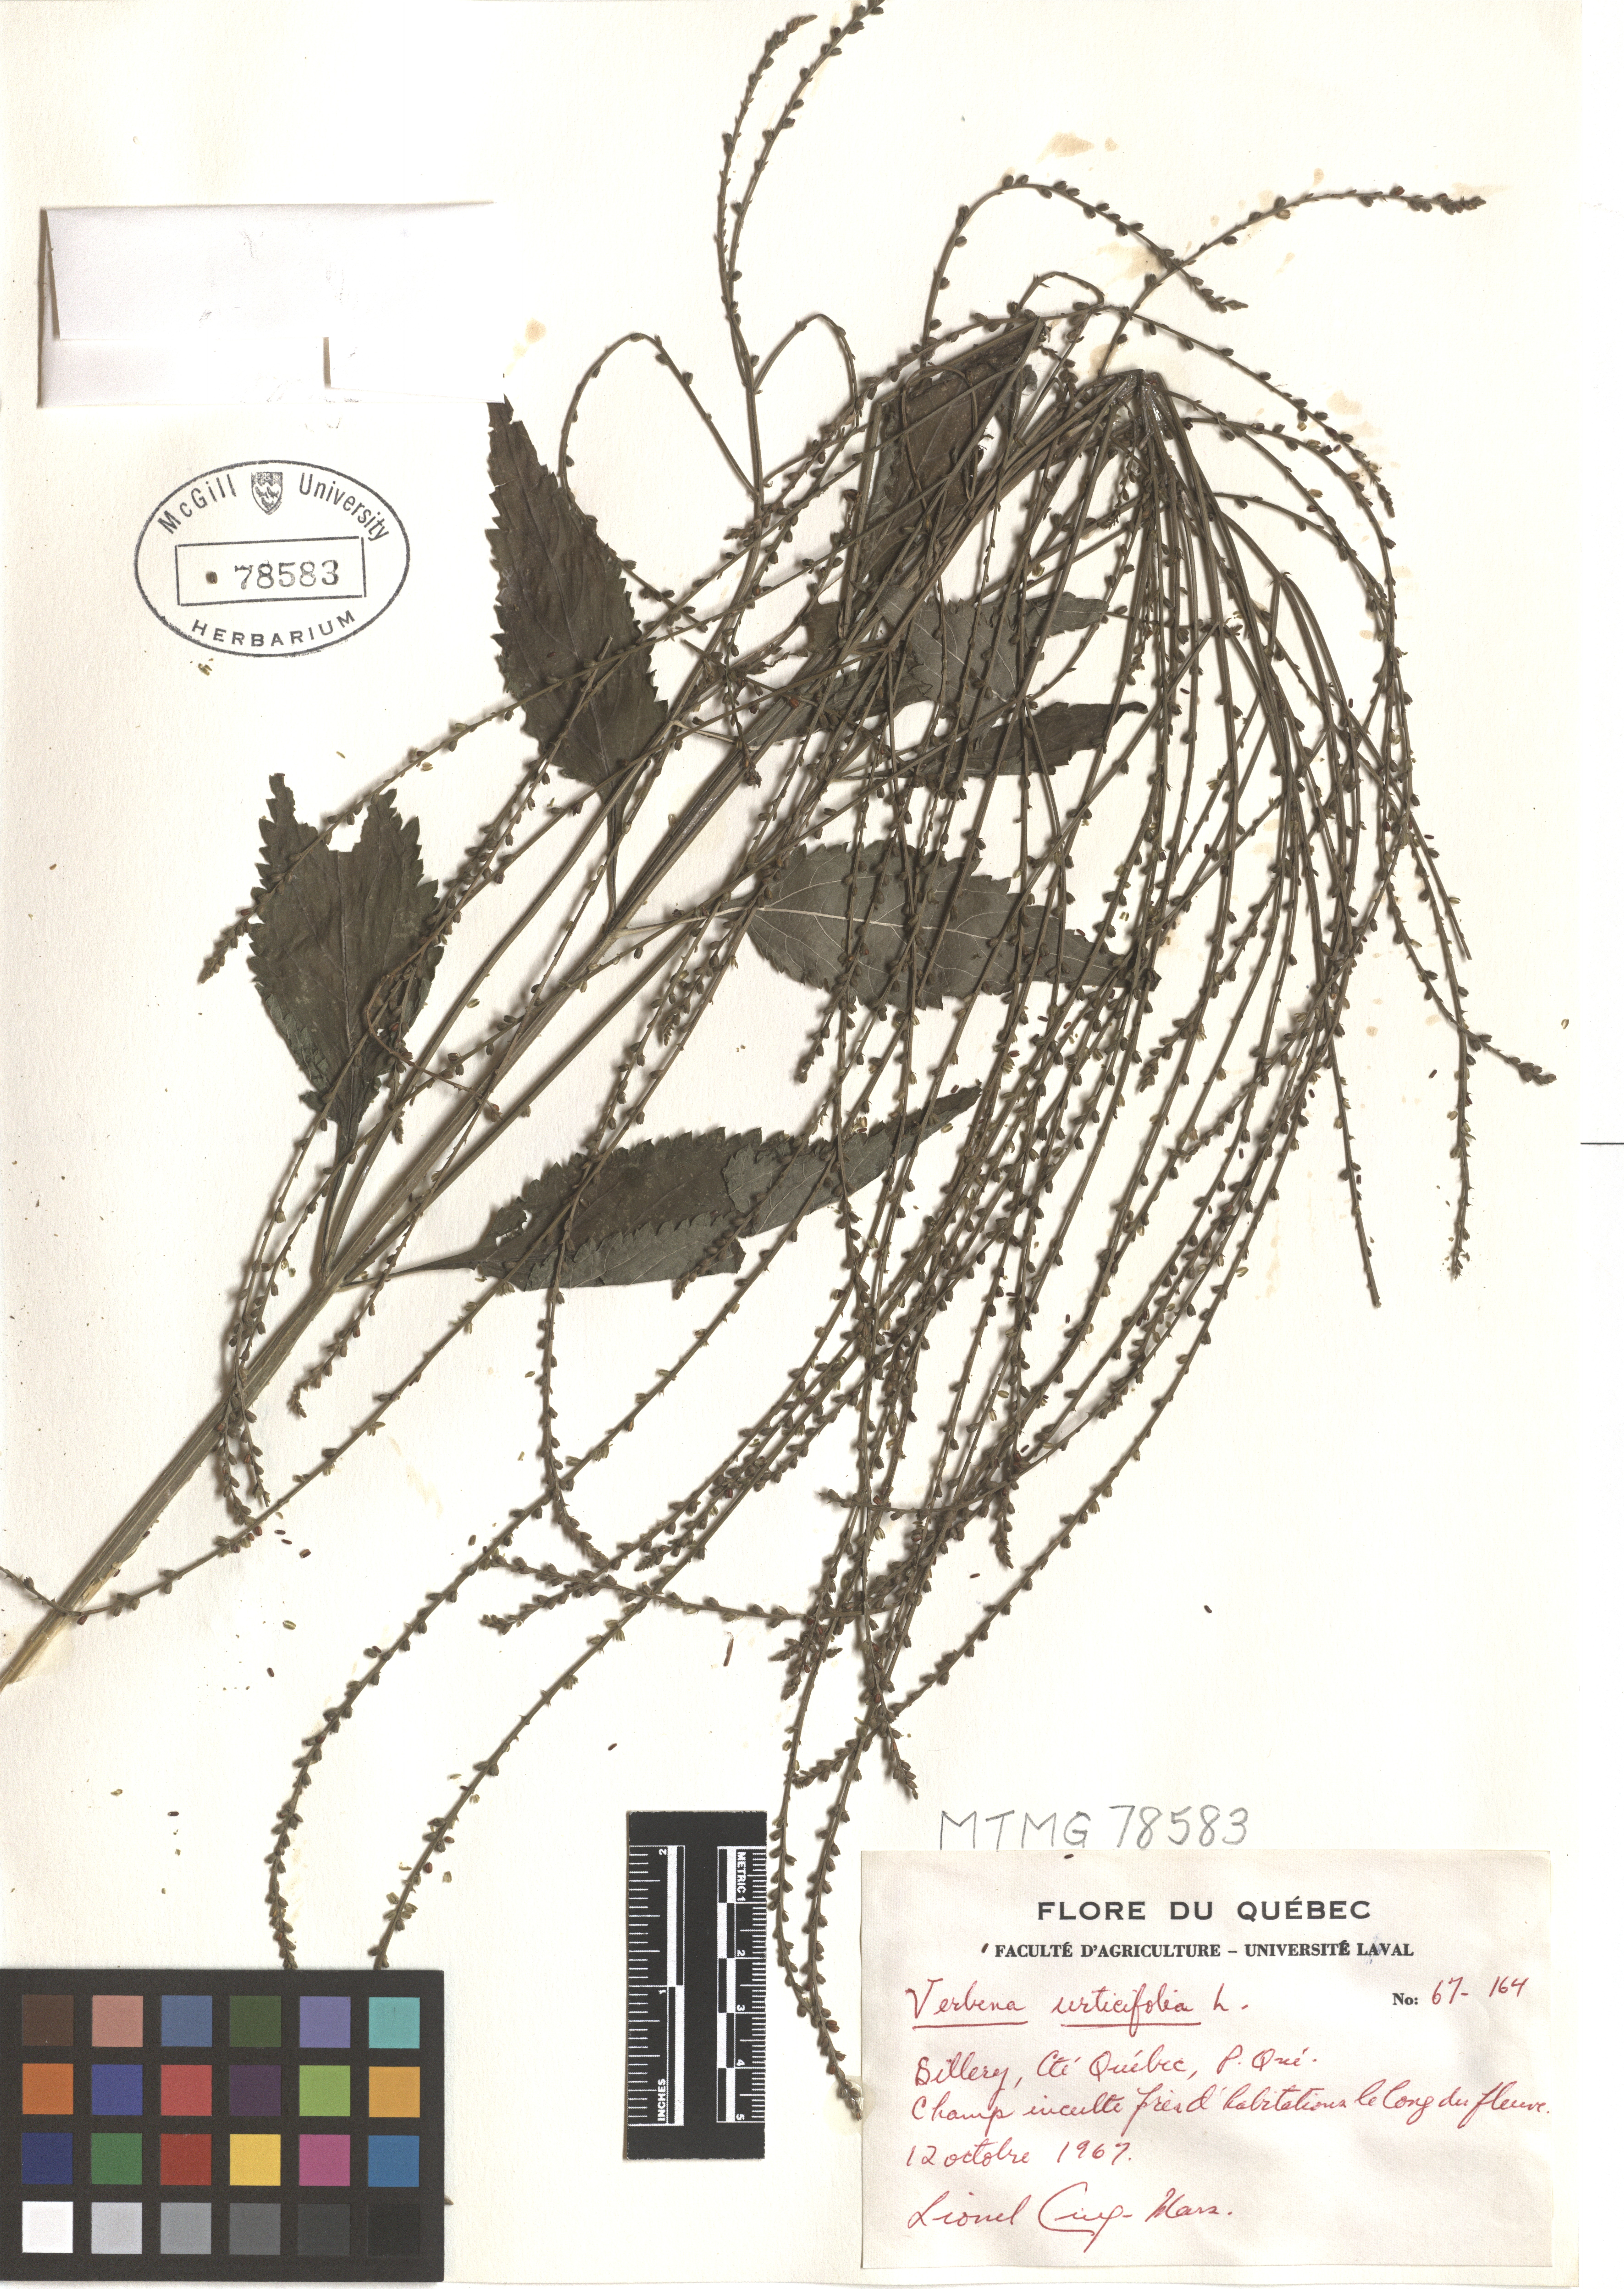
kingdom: Plantae
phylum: Tracheophyta
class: Magnoliopsida
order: Lamiales
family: Verbenaceae
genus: Verbena
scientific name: Verbena urticifolia
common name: Nettle-leaved vervain
